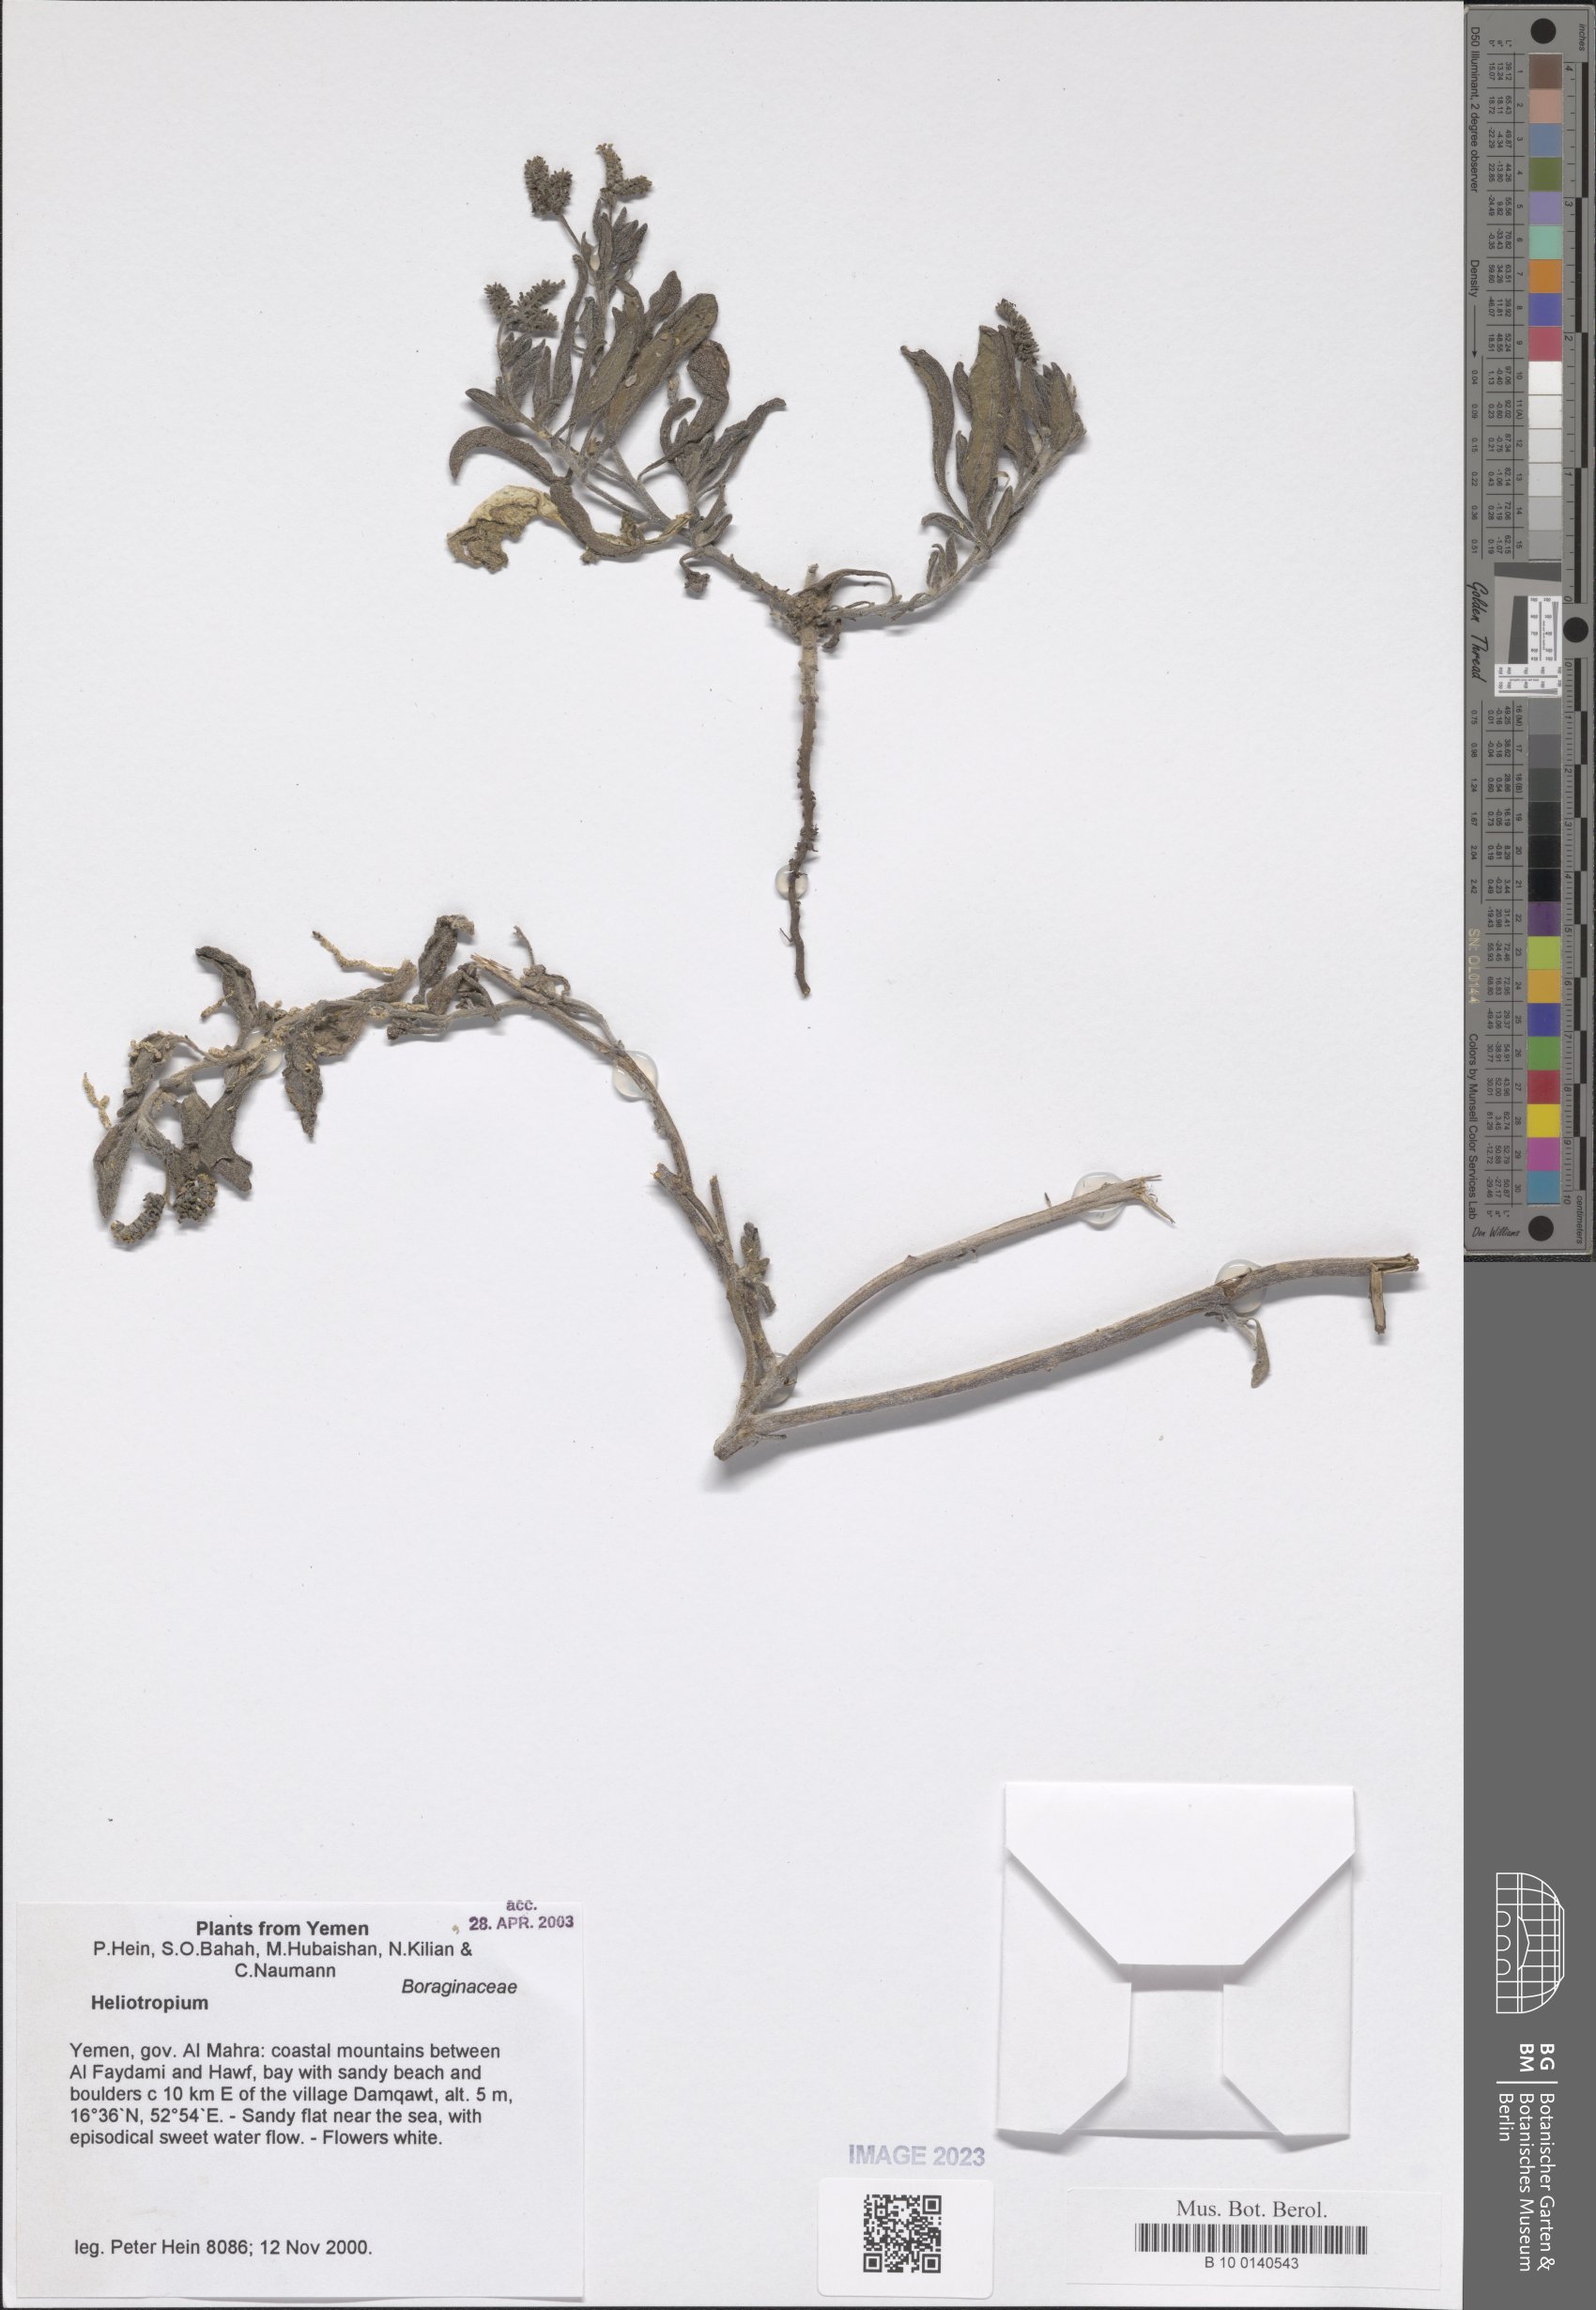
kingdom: Plantae
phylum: Tracheophyta
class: Magnoliopsida
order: Boraginales
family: Heliotropiaceae
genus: Heliotropium
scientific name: Heliotropium
